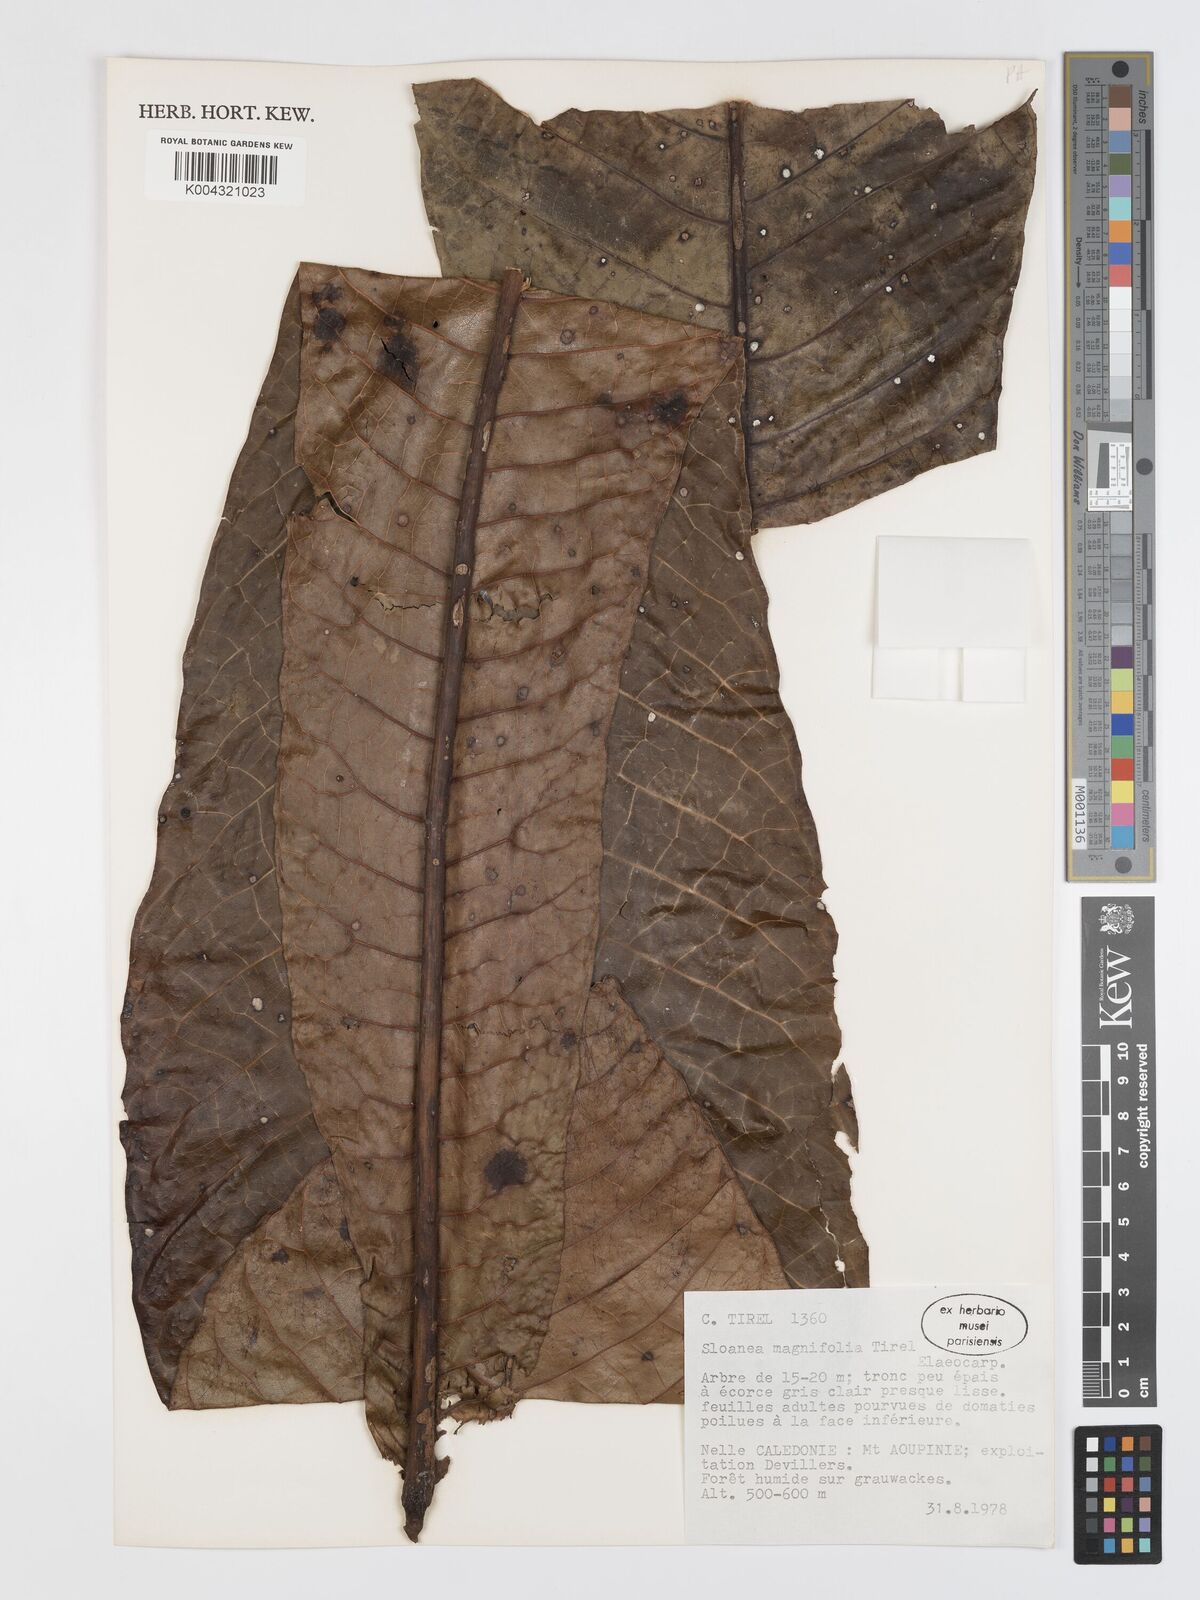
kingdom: Plantae
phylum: Tracheophyta
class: Magnoliopsida
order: Oxalidales
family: Elaeocarpaceae
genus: Sloanea
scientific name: Sloanea magnifolia
